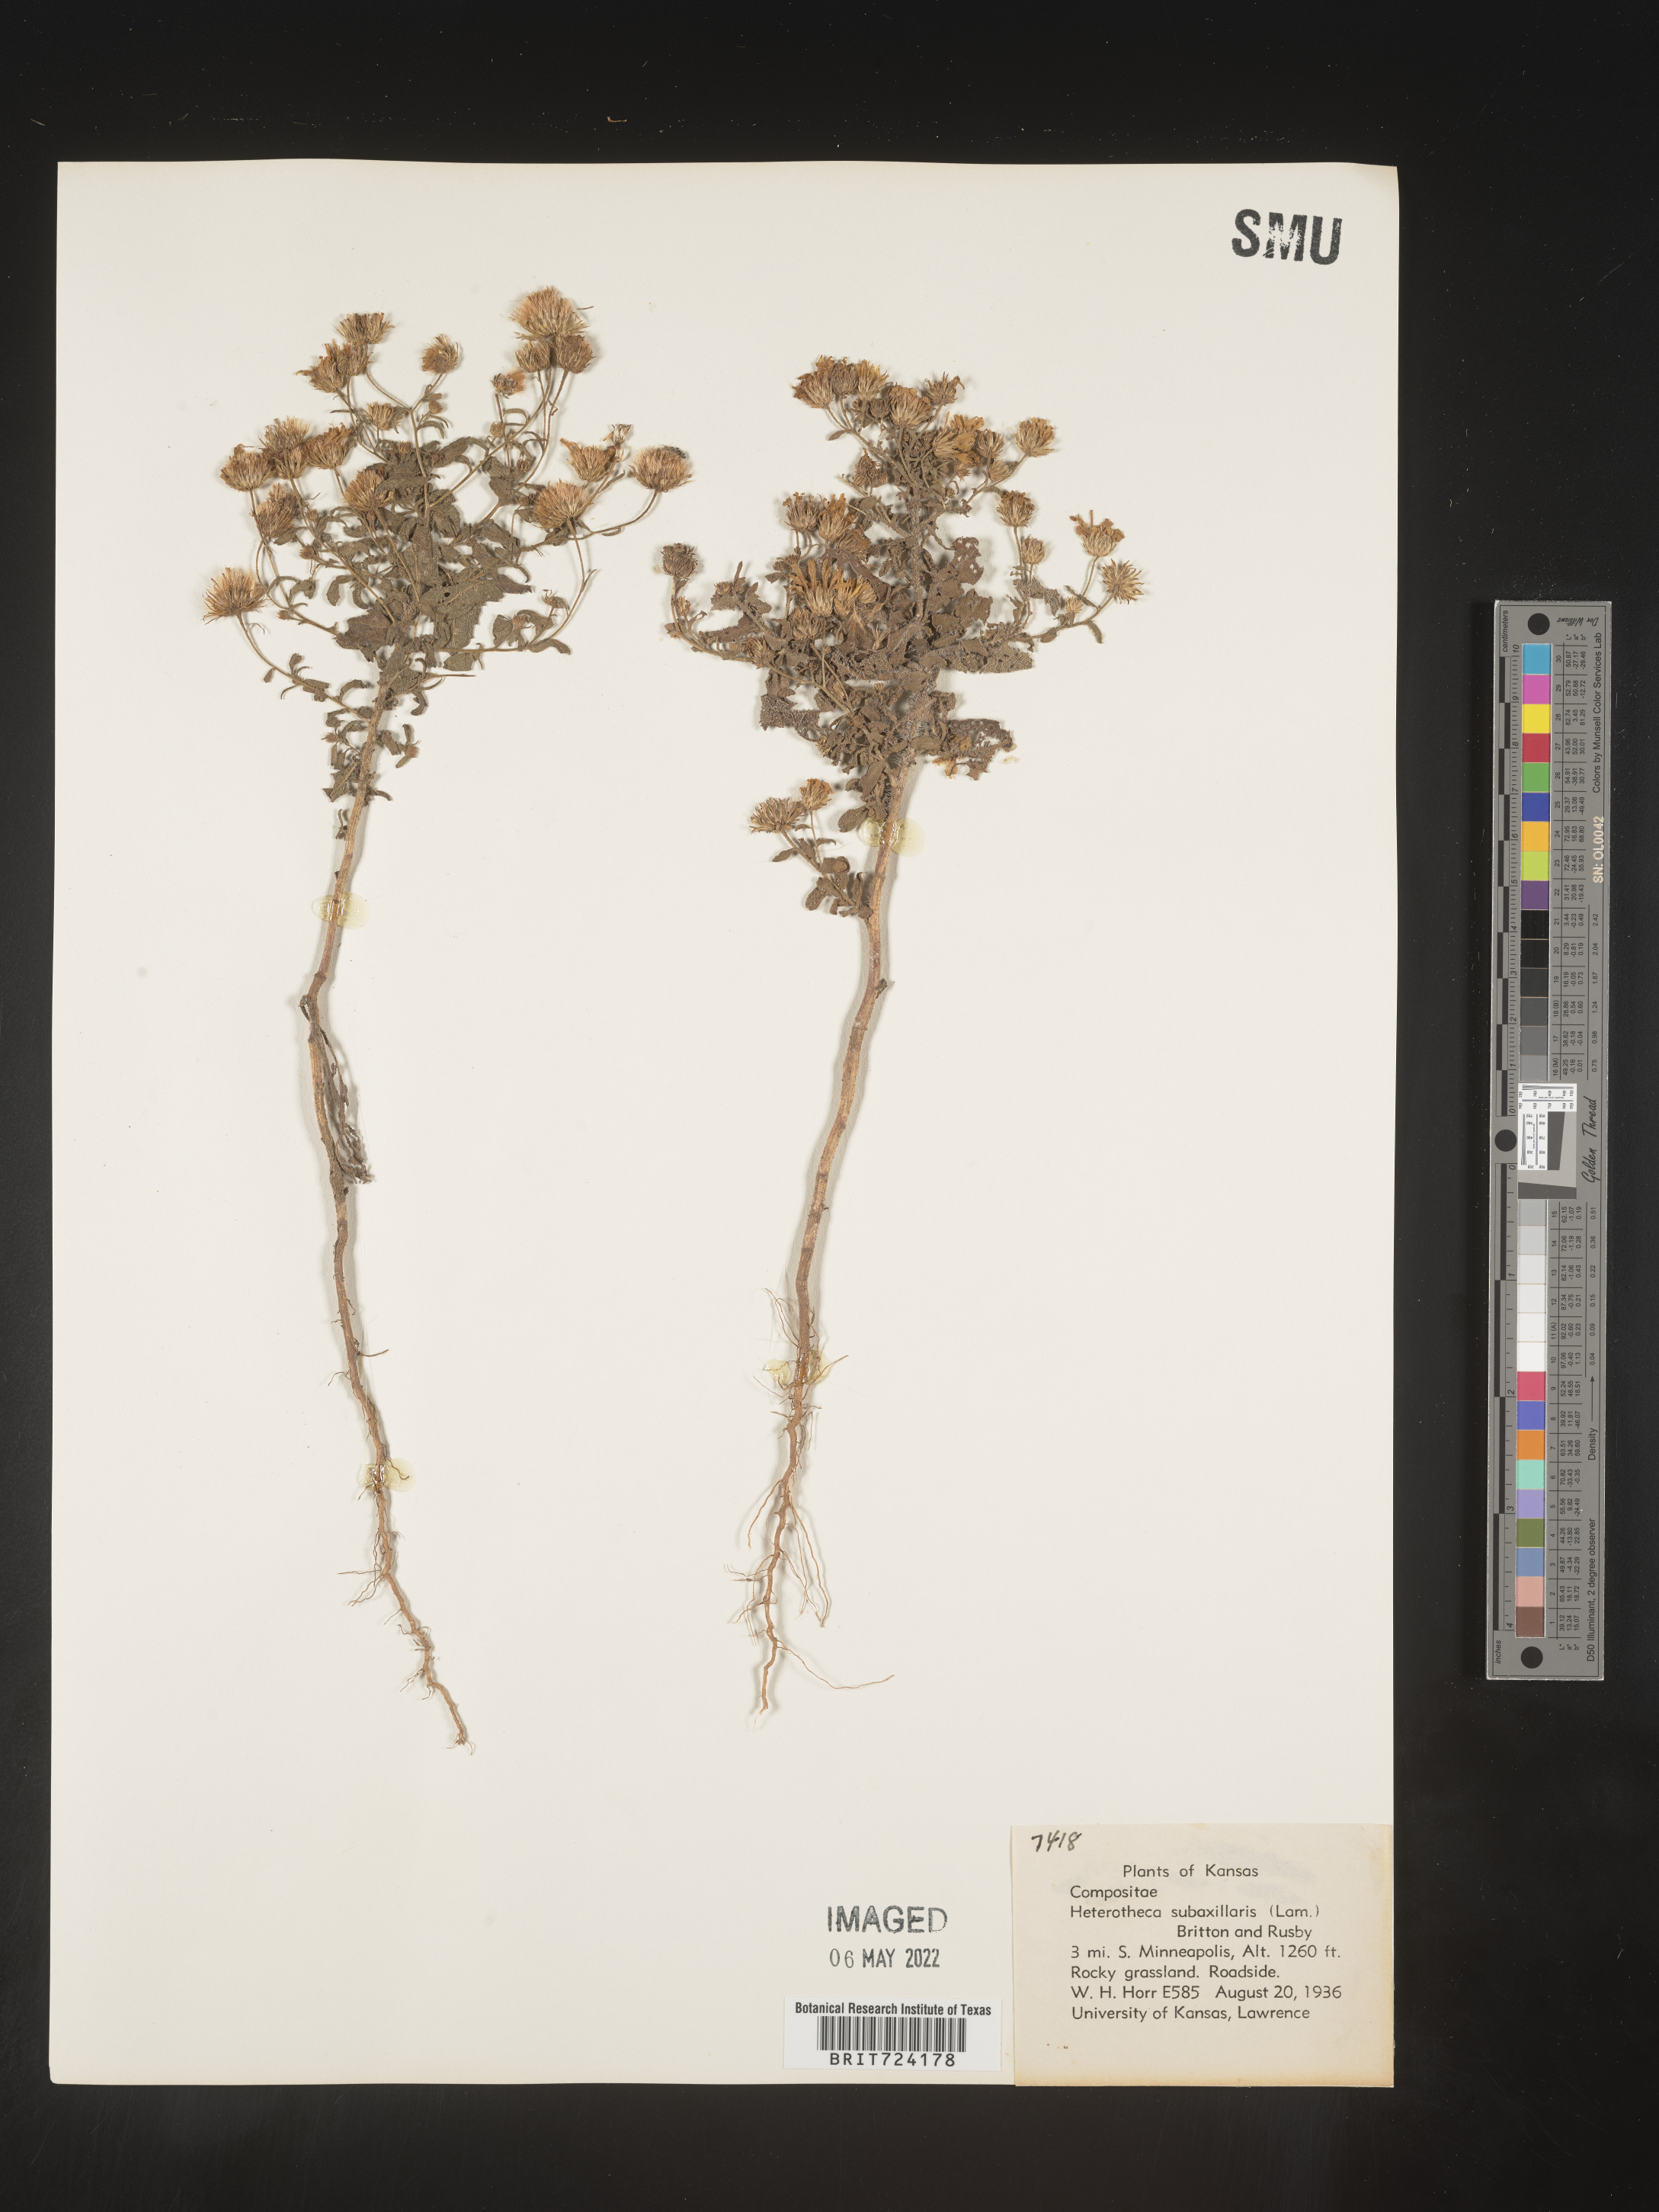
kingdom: Plantae
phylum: Tracheophyta
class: Magnoliopsida
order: Asterales
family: Asteraceae
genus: Heterotheca
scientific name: Heterotheca subaxillaris
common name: Camphorweed
